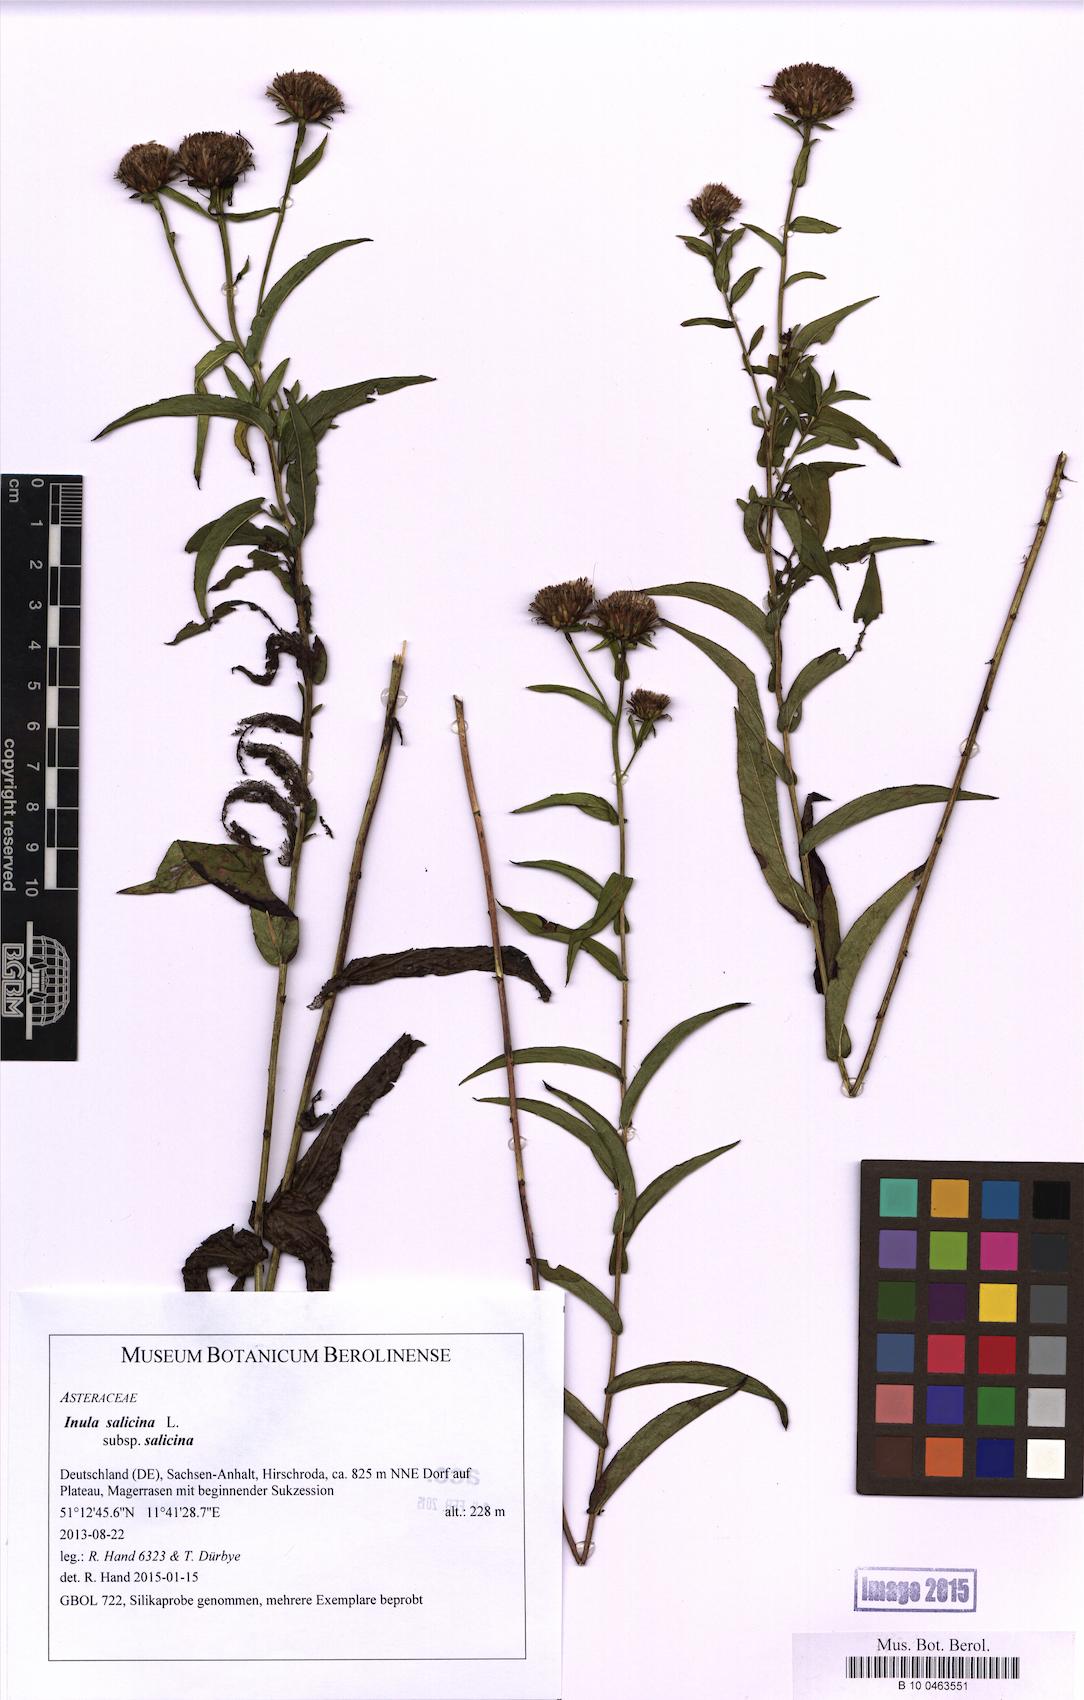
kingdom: Plantae
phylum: Tracheophyta
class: Magnoliopsida
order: Asterales
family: Asteraceae
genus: Pentanema
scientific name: Pentanema salicinum
